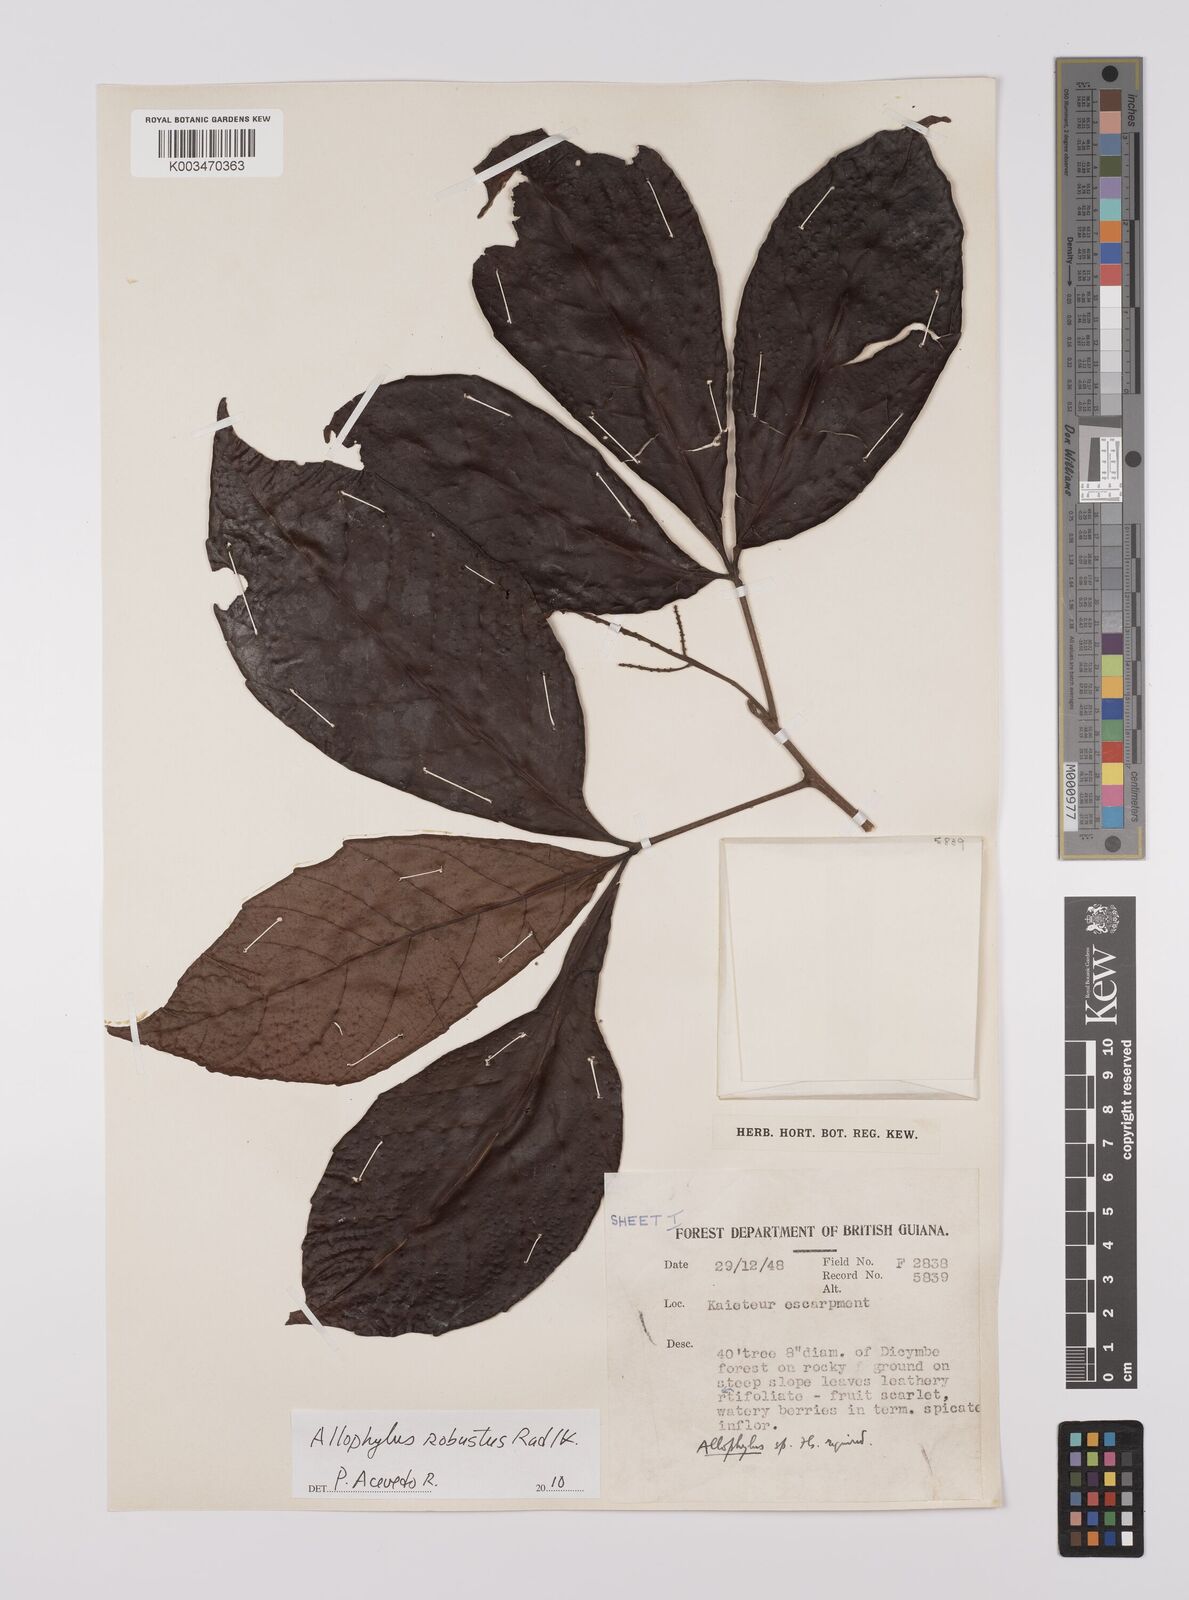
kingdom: Plantae
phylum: Tracheophyta
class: Magnoliopsida
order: Sapindales
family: Sapindaceae
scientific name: Sapindaceae
